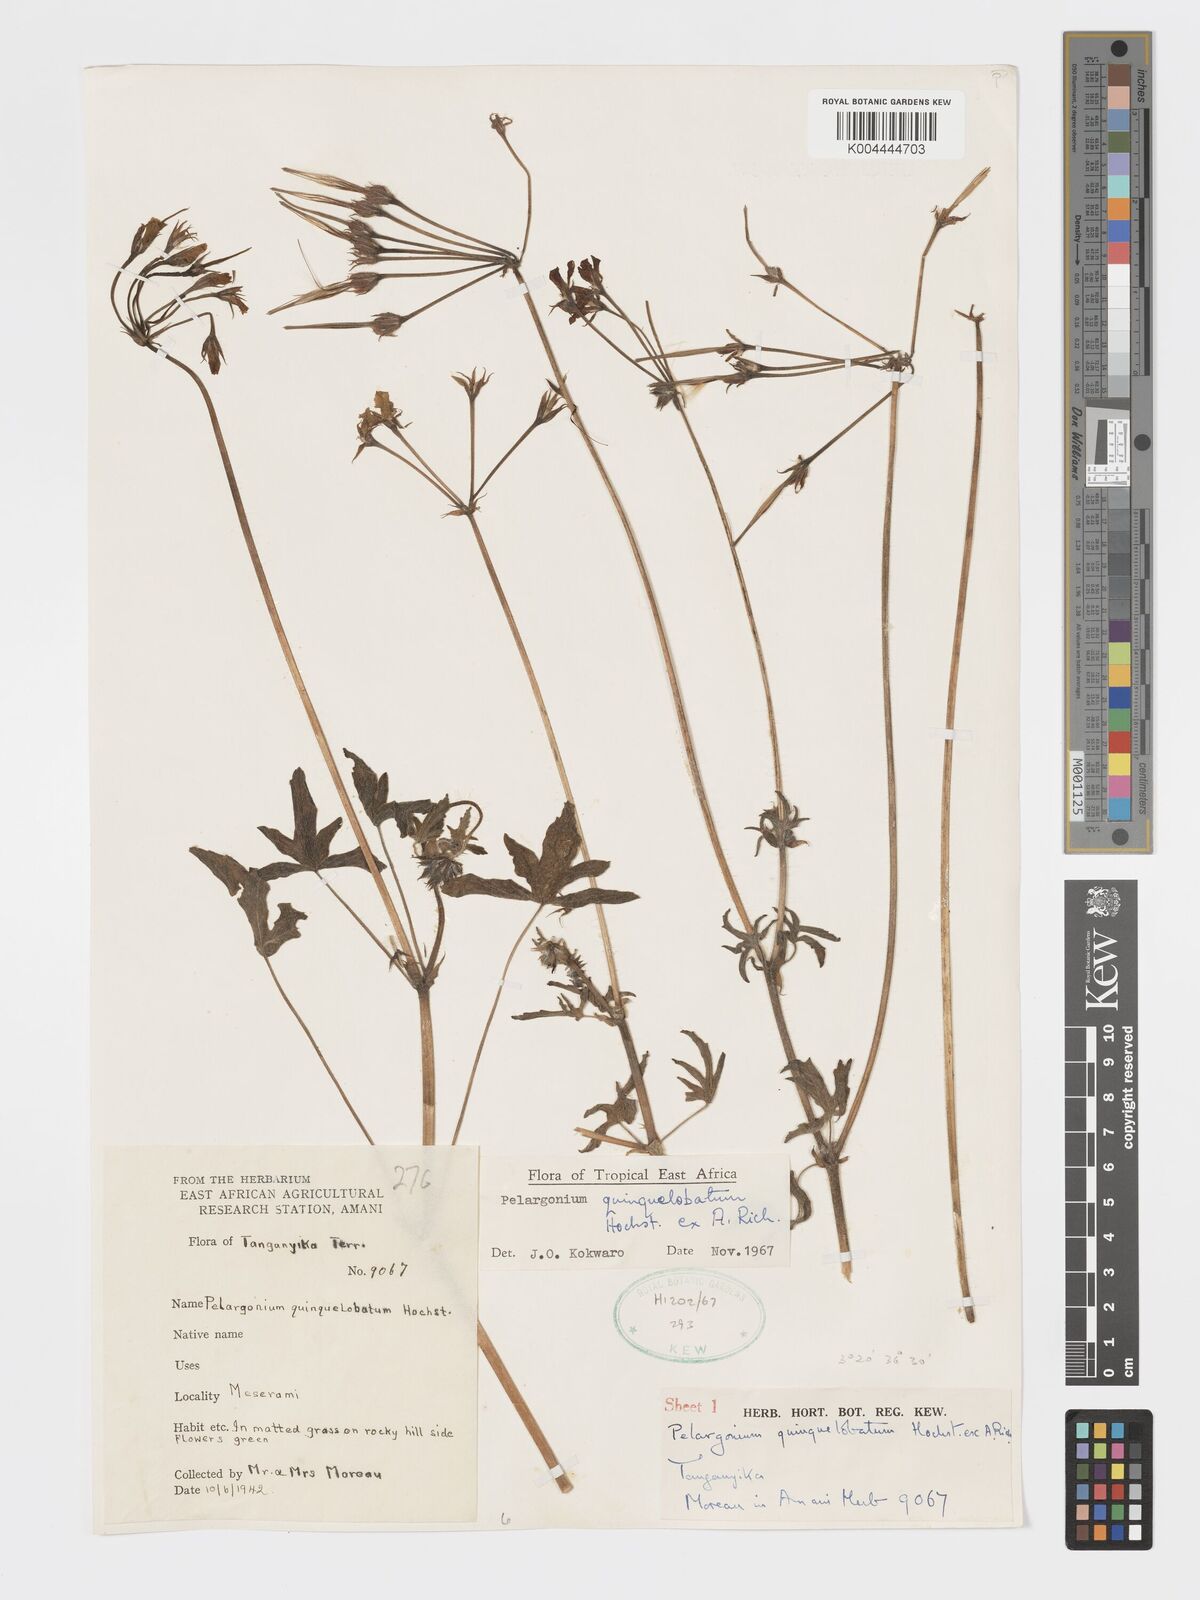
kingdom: Plantae
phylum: Tracheophyta
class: Magnoliopsida
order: Geraniales
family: Geraniaceae
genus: Pelargonium
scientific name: Pelargonium quinquelobatum
